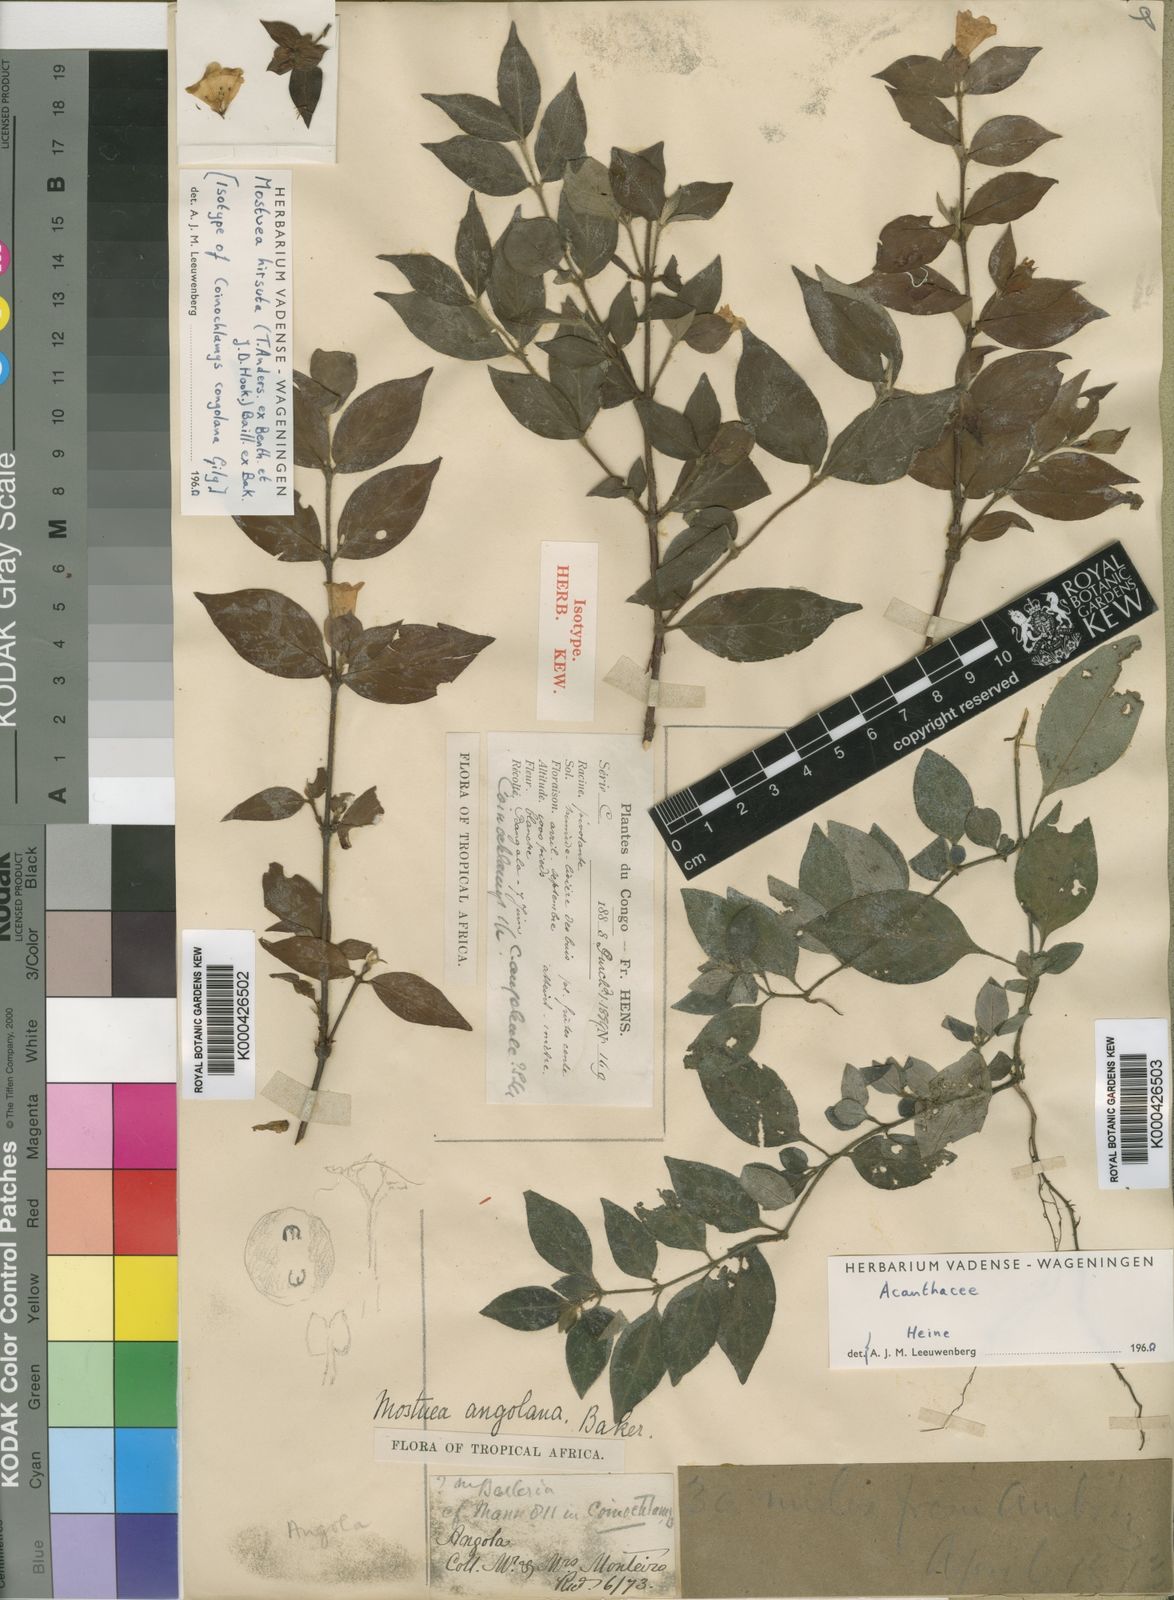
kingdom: Plantae
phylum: Tracheophyta
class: Magnoliopsida
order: Gentianales
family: Gelsemiaceae
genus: Mostuea
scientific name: Mostuea
